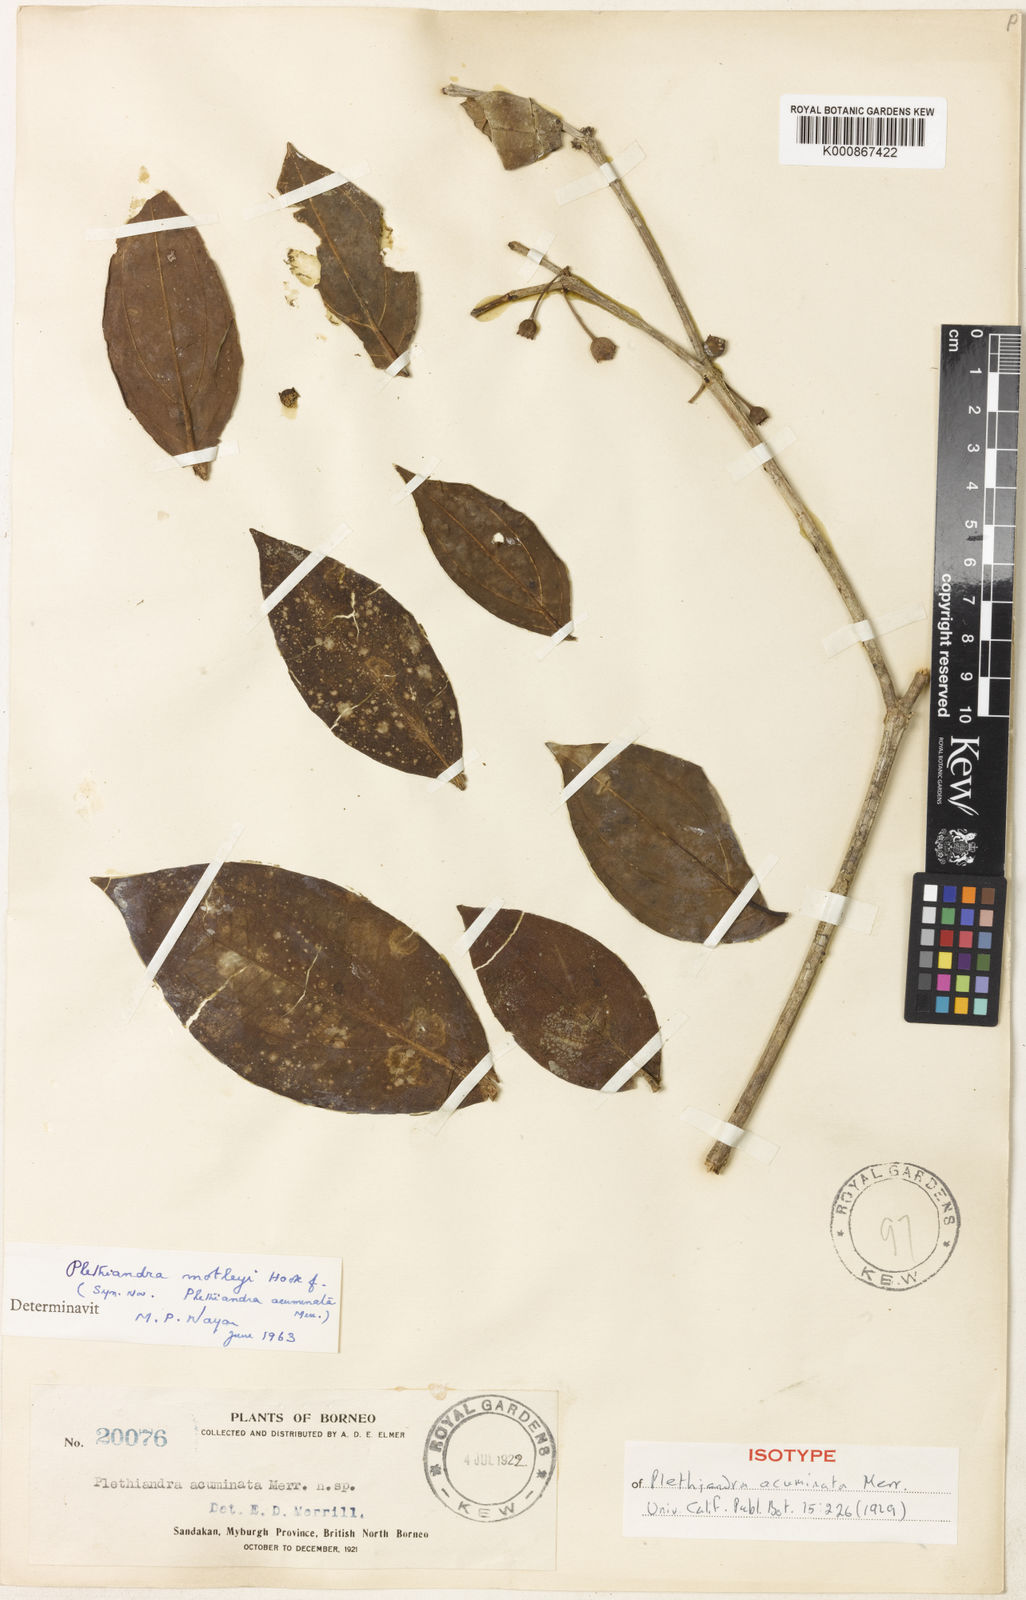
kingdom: Plantae
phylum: Tracheophyta
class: Magnoliopsida
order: Myrtales
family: Melastomataceae
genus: Plethiandra
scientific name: Plethiandra motleyi
